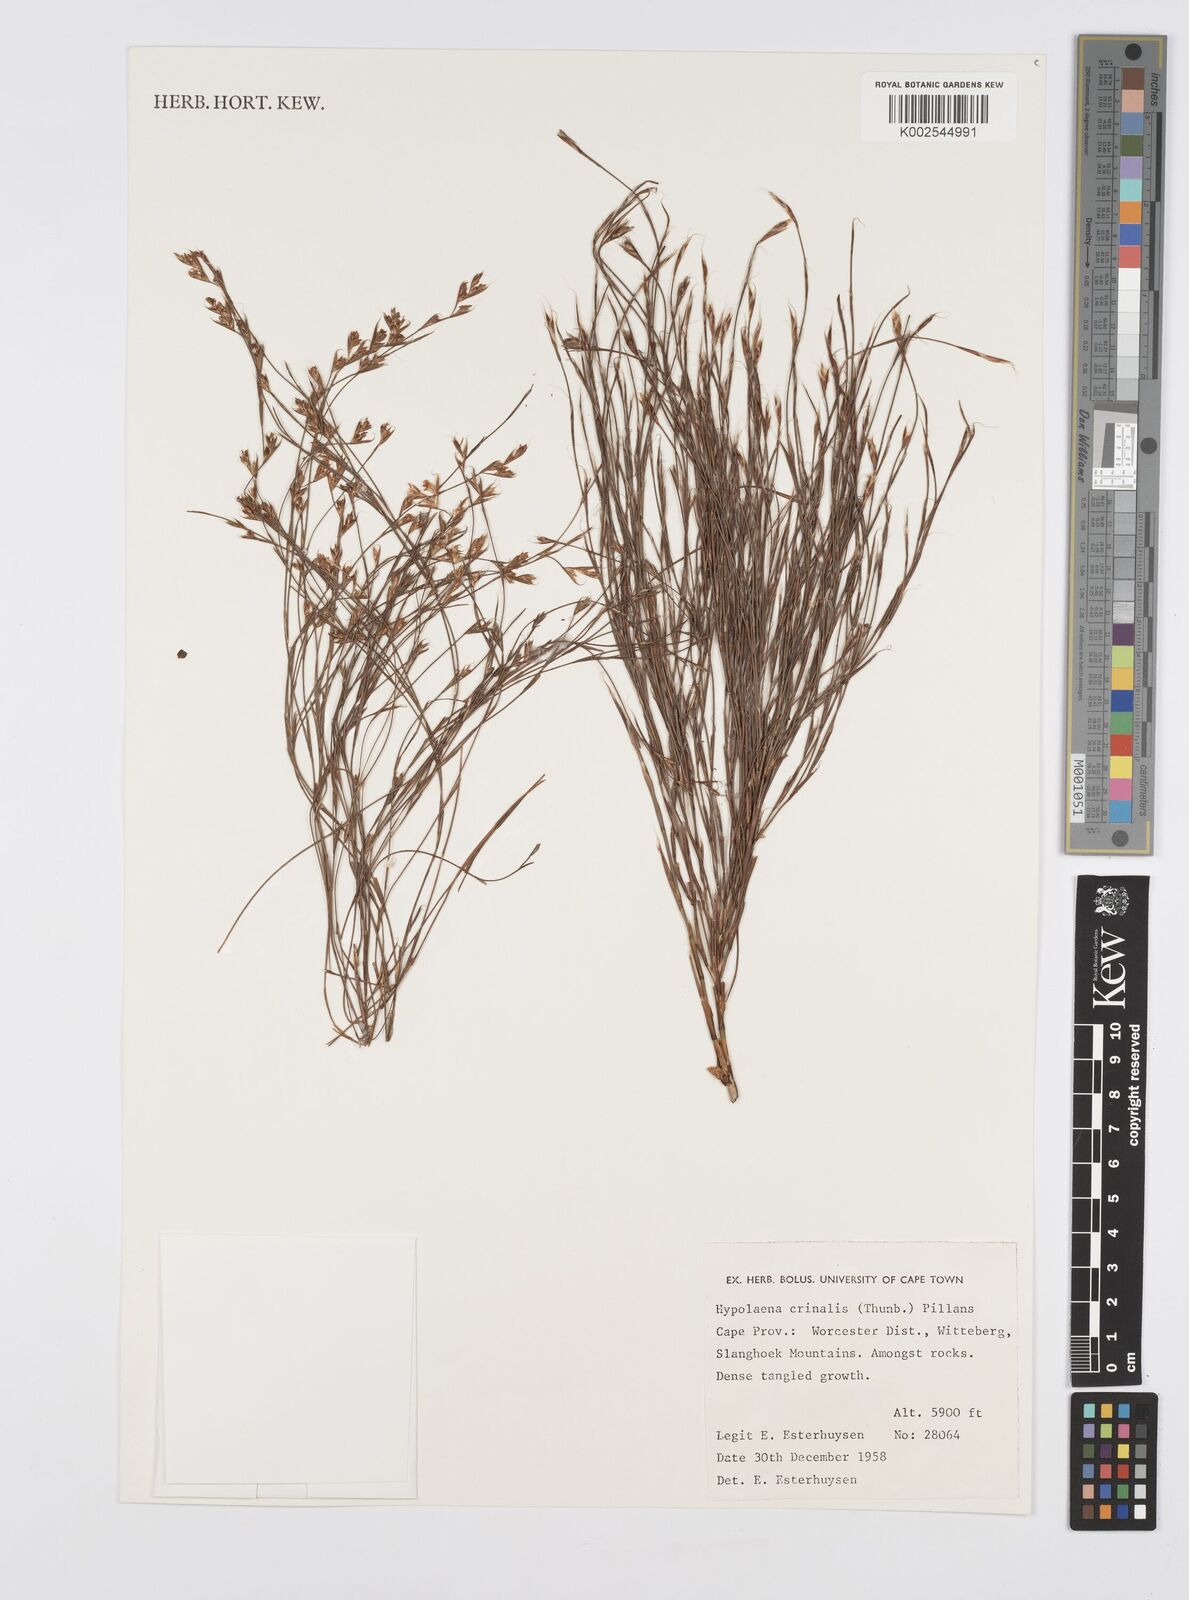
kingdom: Plantae
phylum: Tracheophyta
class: Liliopsida
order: Poales
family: Restionaceae
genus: Anthochortus
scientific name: Anthochortus crinalis
